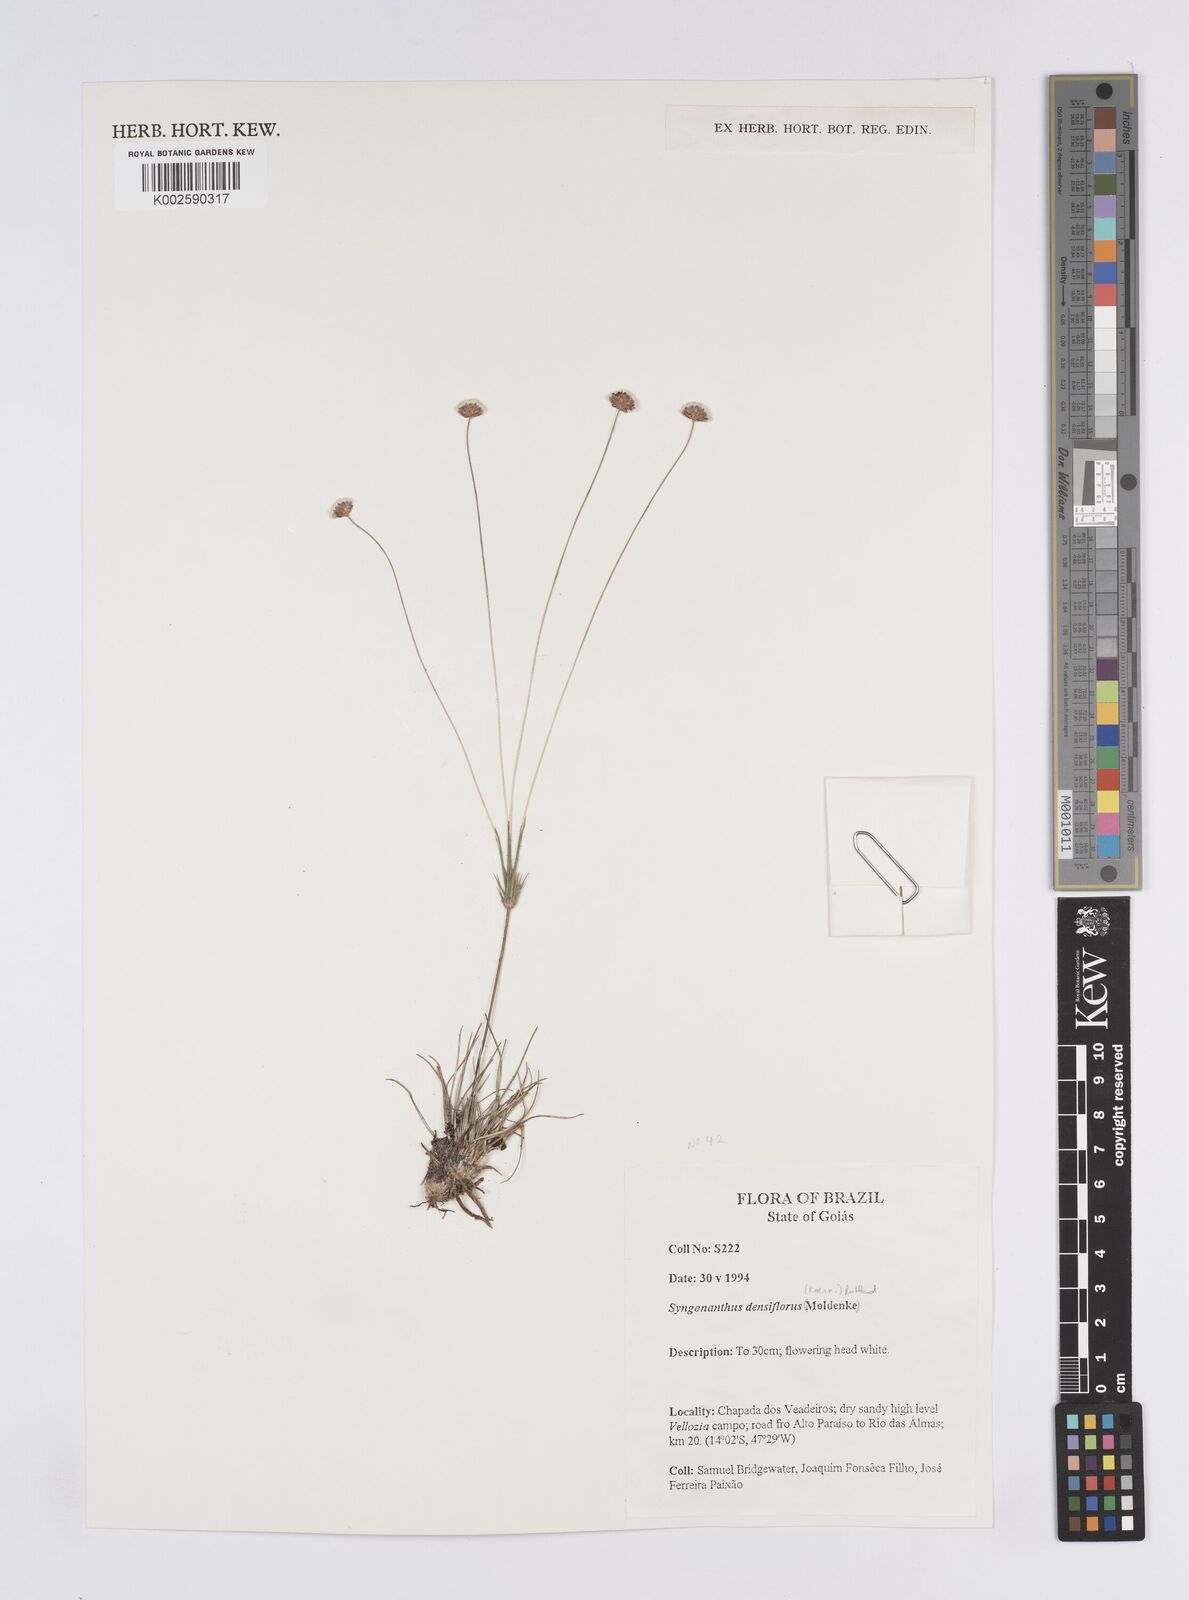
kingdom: Plantae
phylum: Tracheophyta
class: Liliopsida
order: Poales
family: Eriocaulaceae
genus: Syngonanthus
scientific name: Syngonanthus densiflorus
